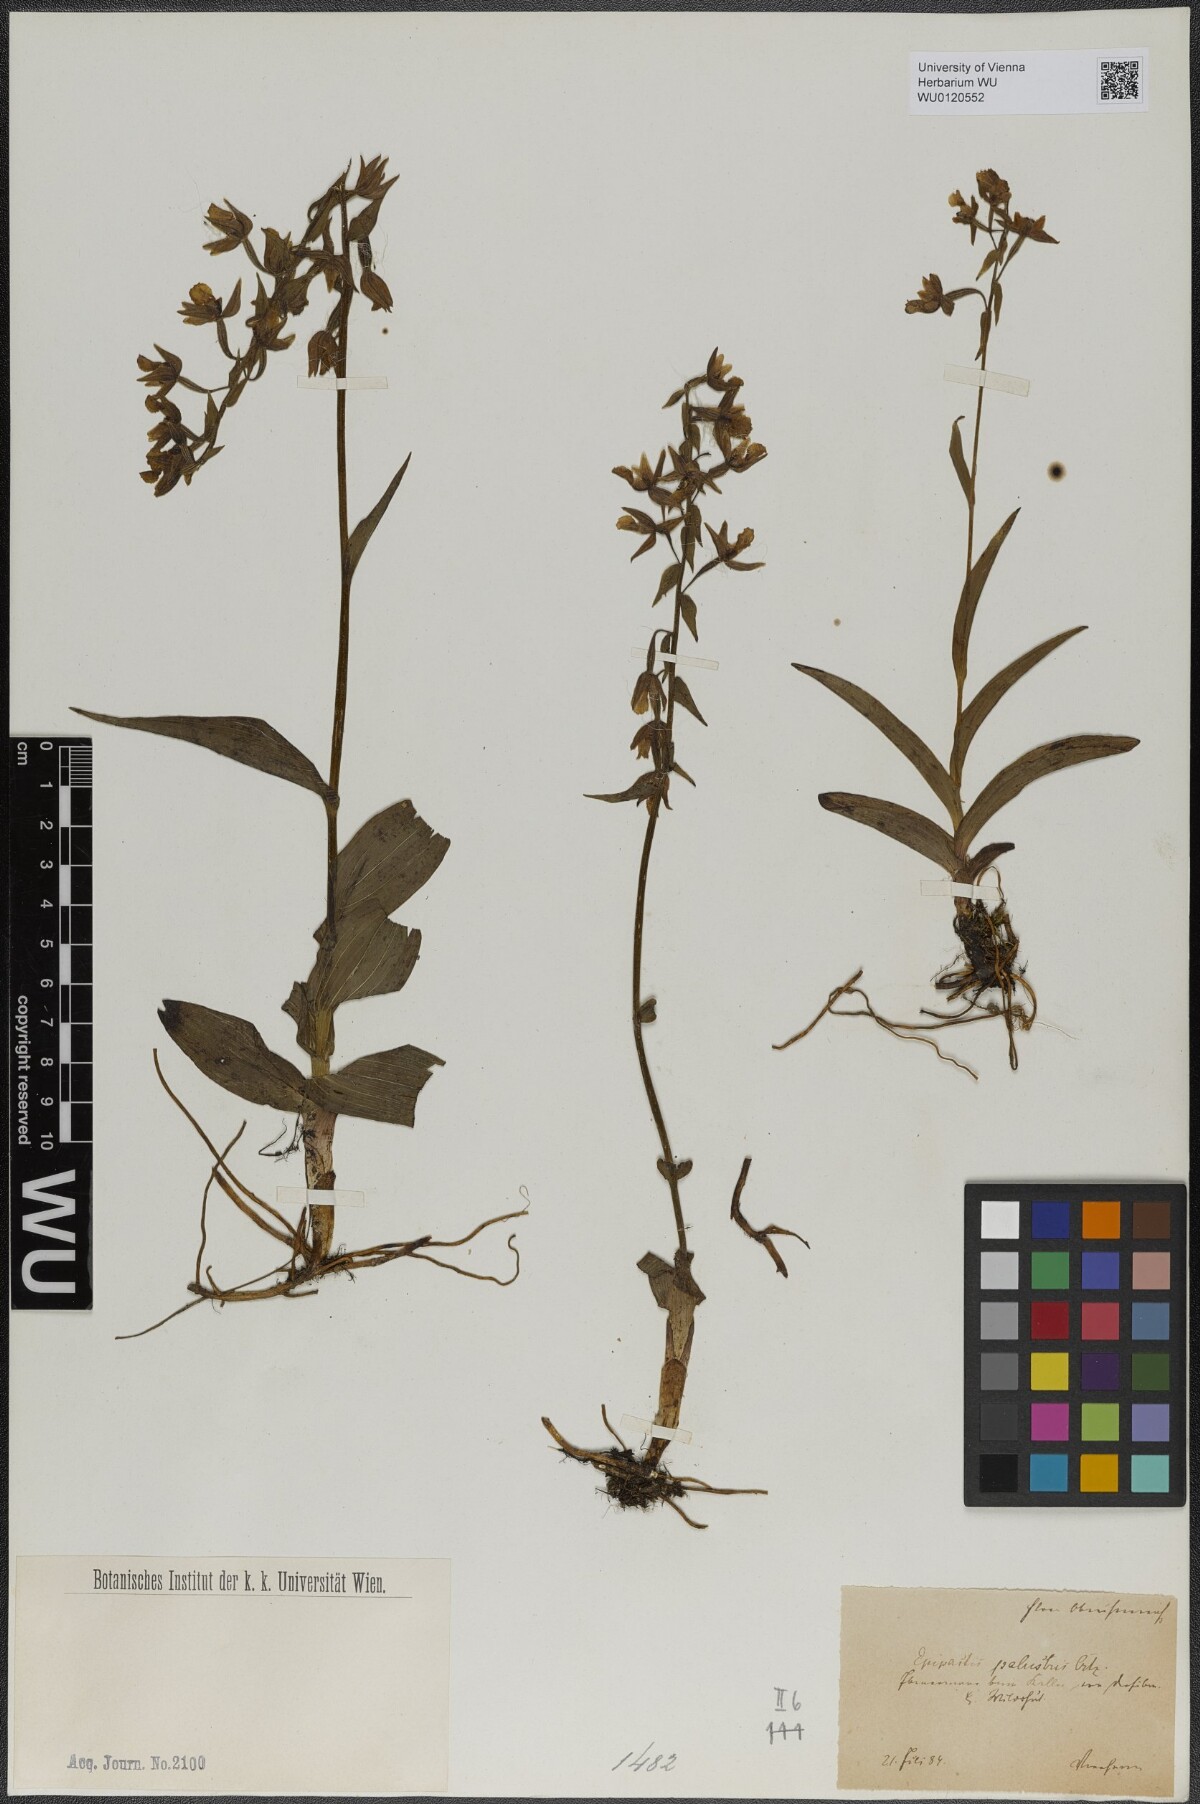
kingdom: Plantae
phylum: Tracheophyta
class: Liliopsida
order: Asparagales
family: Orchidaceae
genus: Epipactis
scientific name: Epipactis palustris
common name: Marsh helleborine
